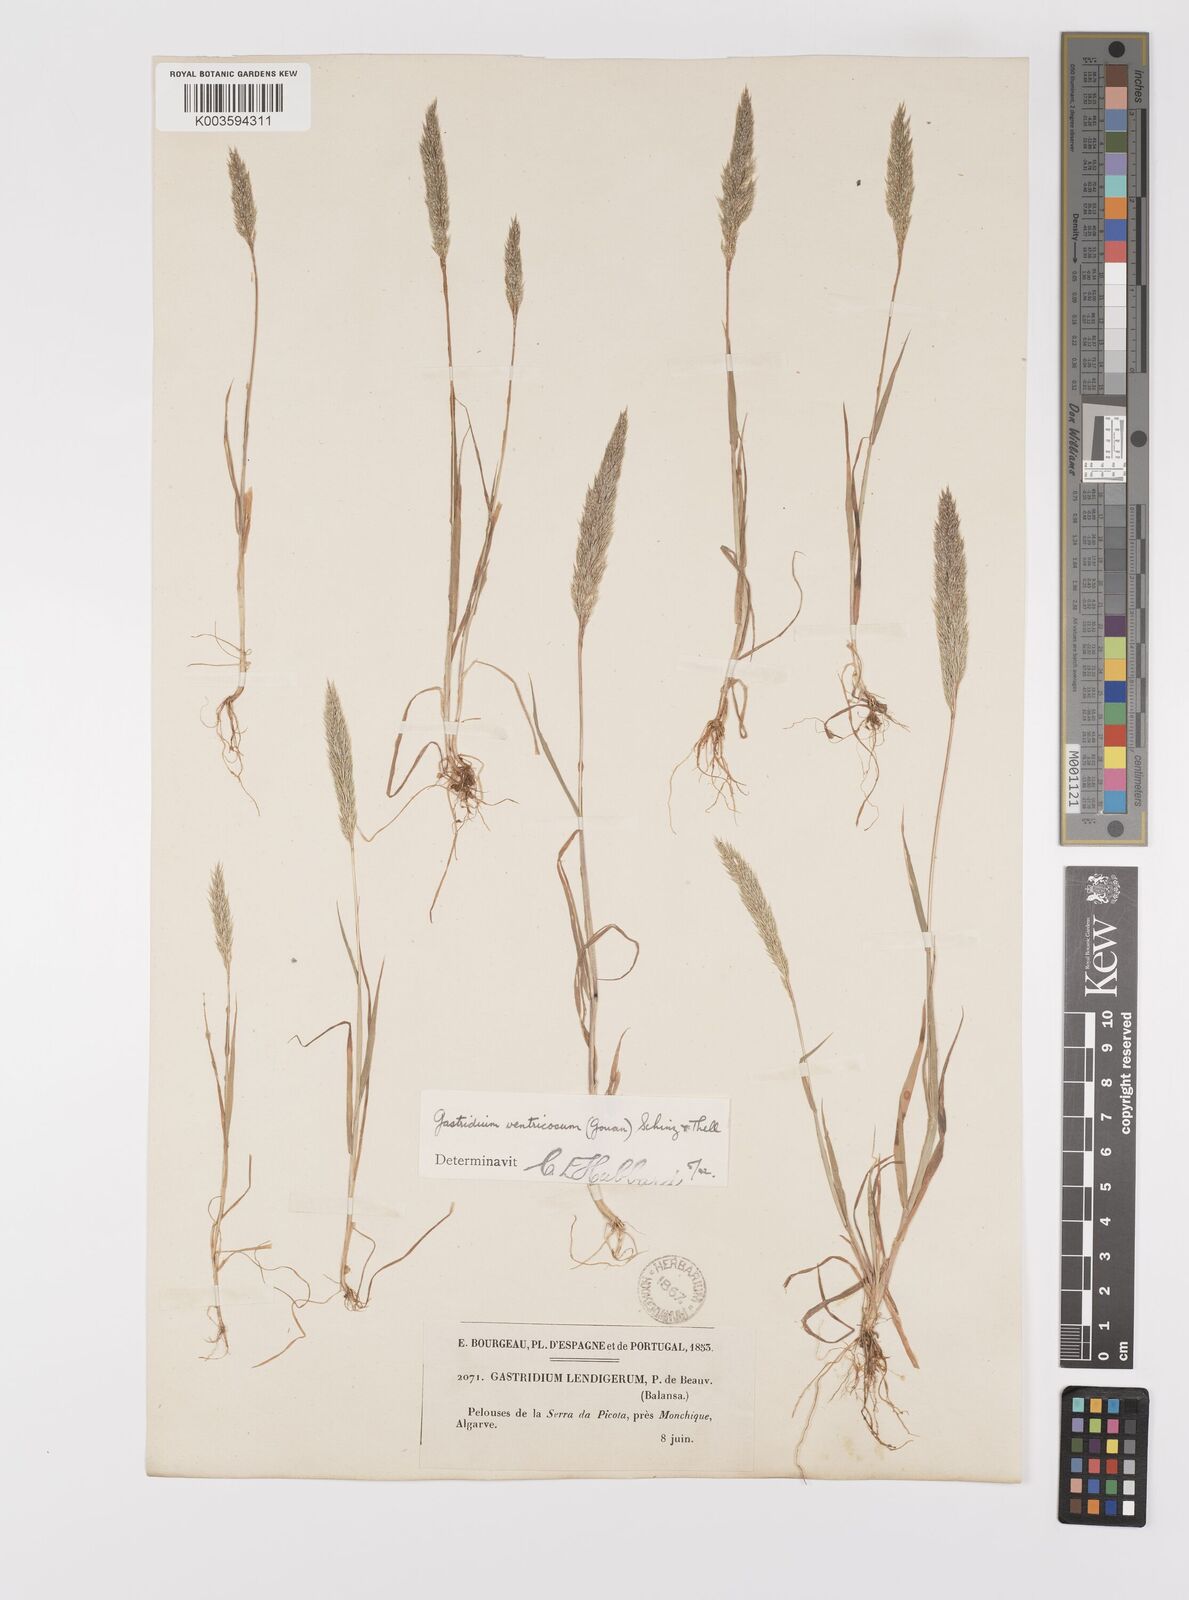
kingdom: Plantae
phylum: Tracheophyta
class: Liliopsida
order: Poales
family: Poaceae
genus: Gastridium
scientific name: Gastridium ventricosum
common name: Nit-grass
